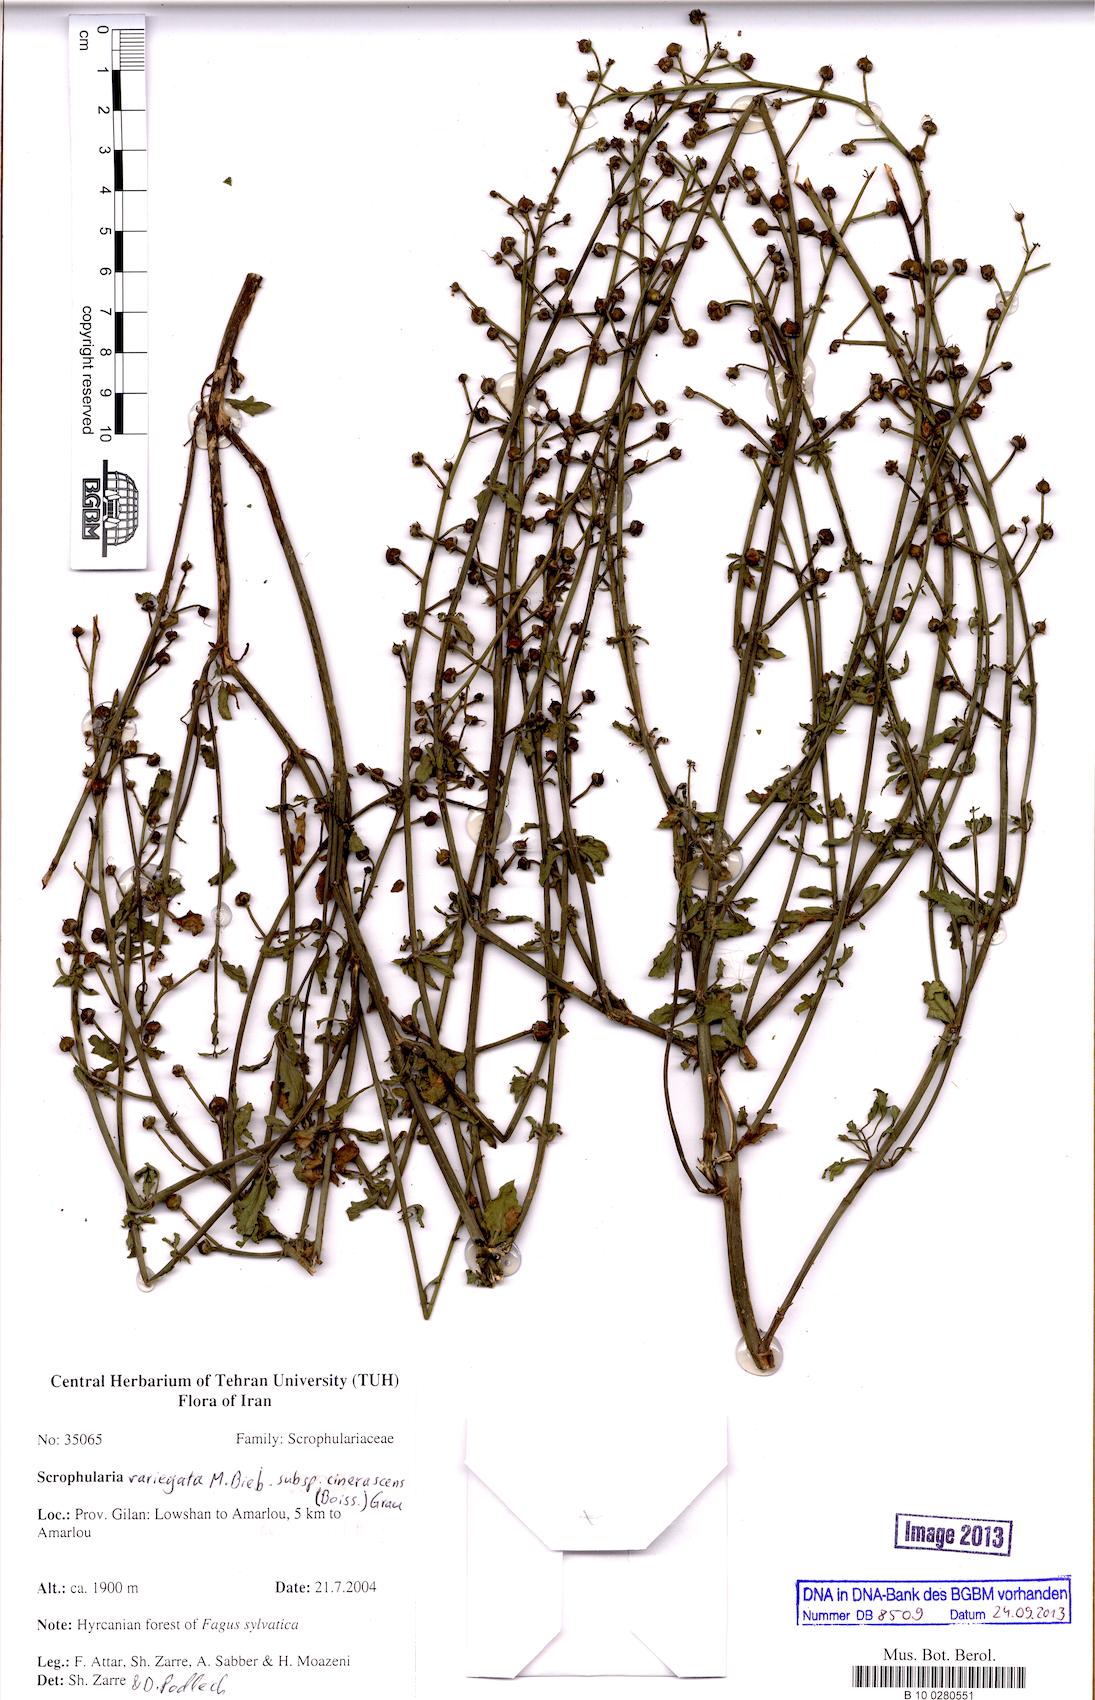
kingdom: Plantae
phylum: Tracheophyta
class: Magnoliopsida
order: Lamiales
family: Scrophulariaceae
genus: Scrophularia
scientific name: Scrophularia versicolor
